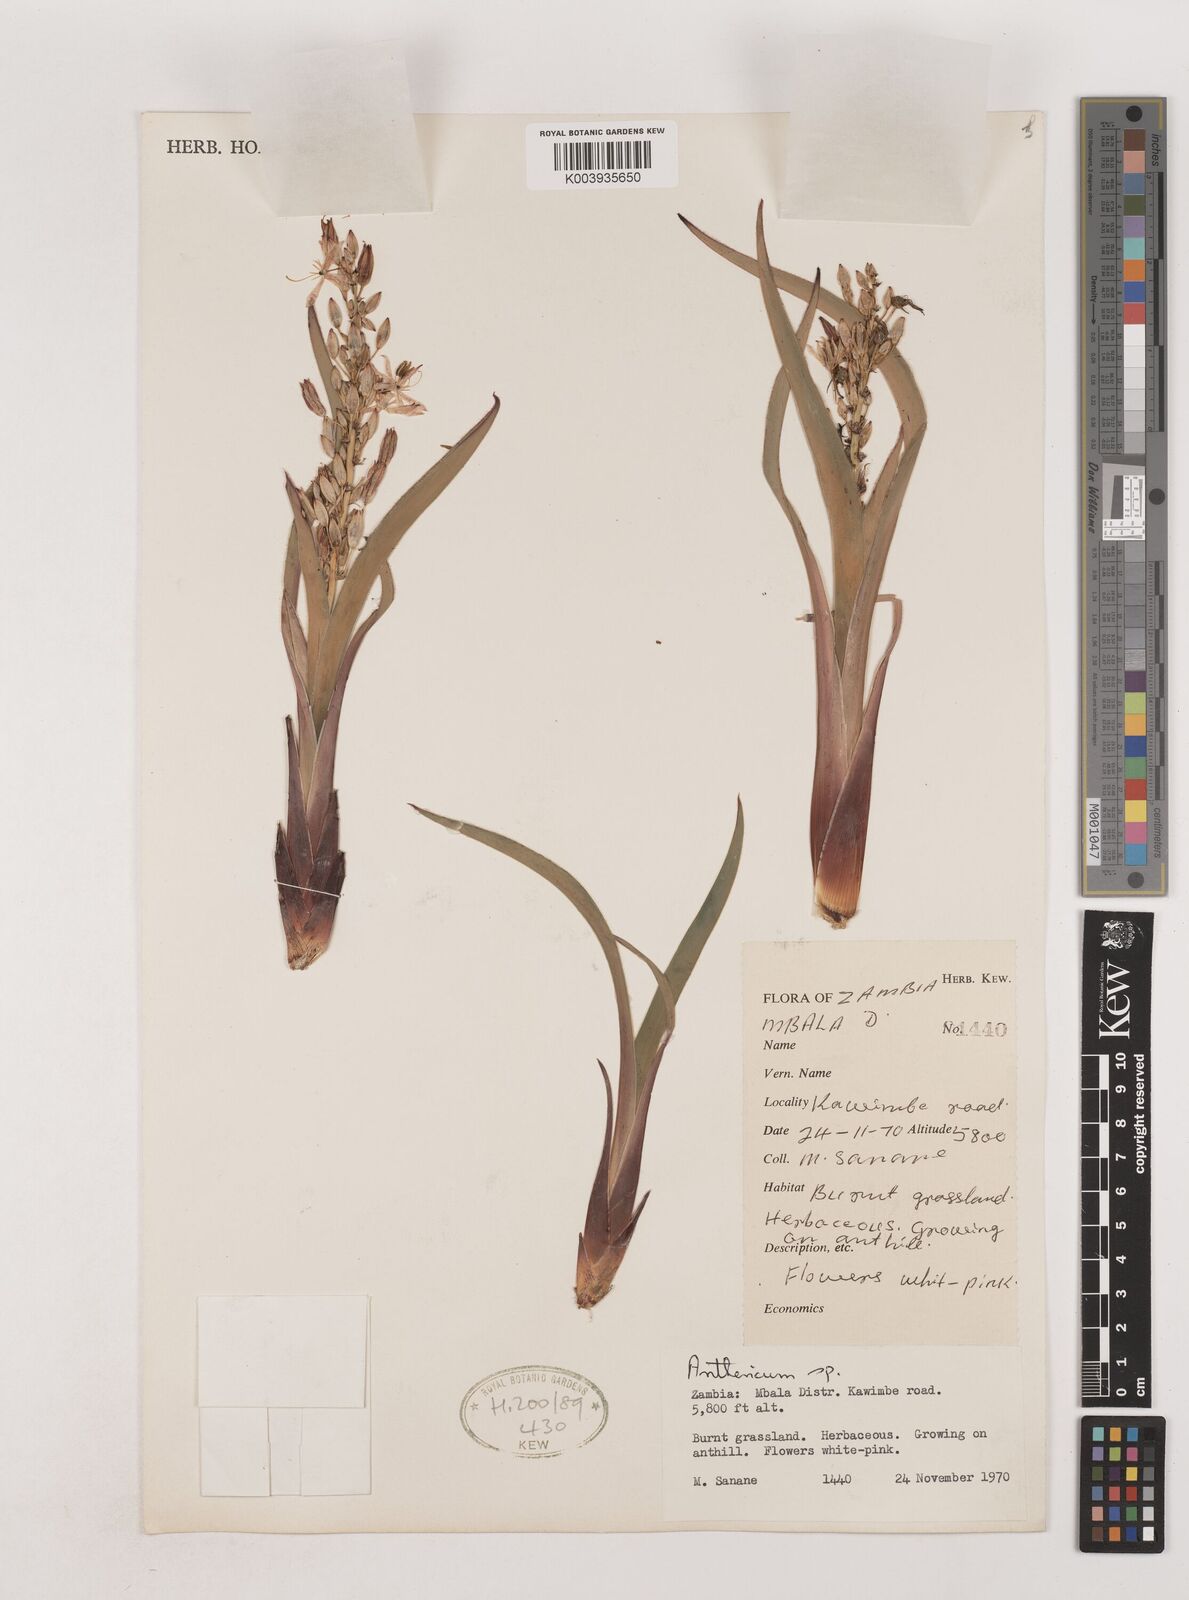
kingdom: Plantae
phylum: Tracheophyta
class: Liliopsida
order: Asparagales
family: Asparagaceae
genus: Chlorophytum
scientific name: Chlorophytum
